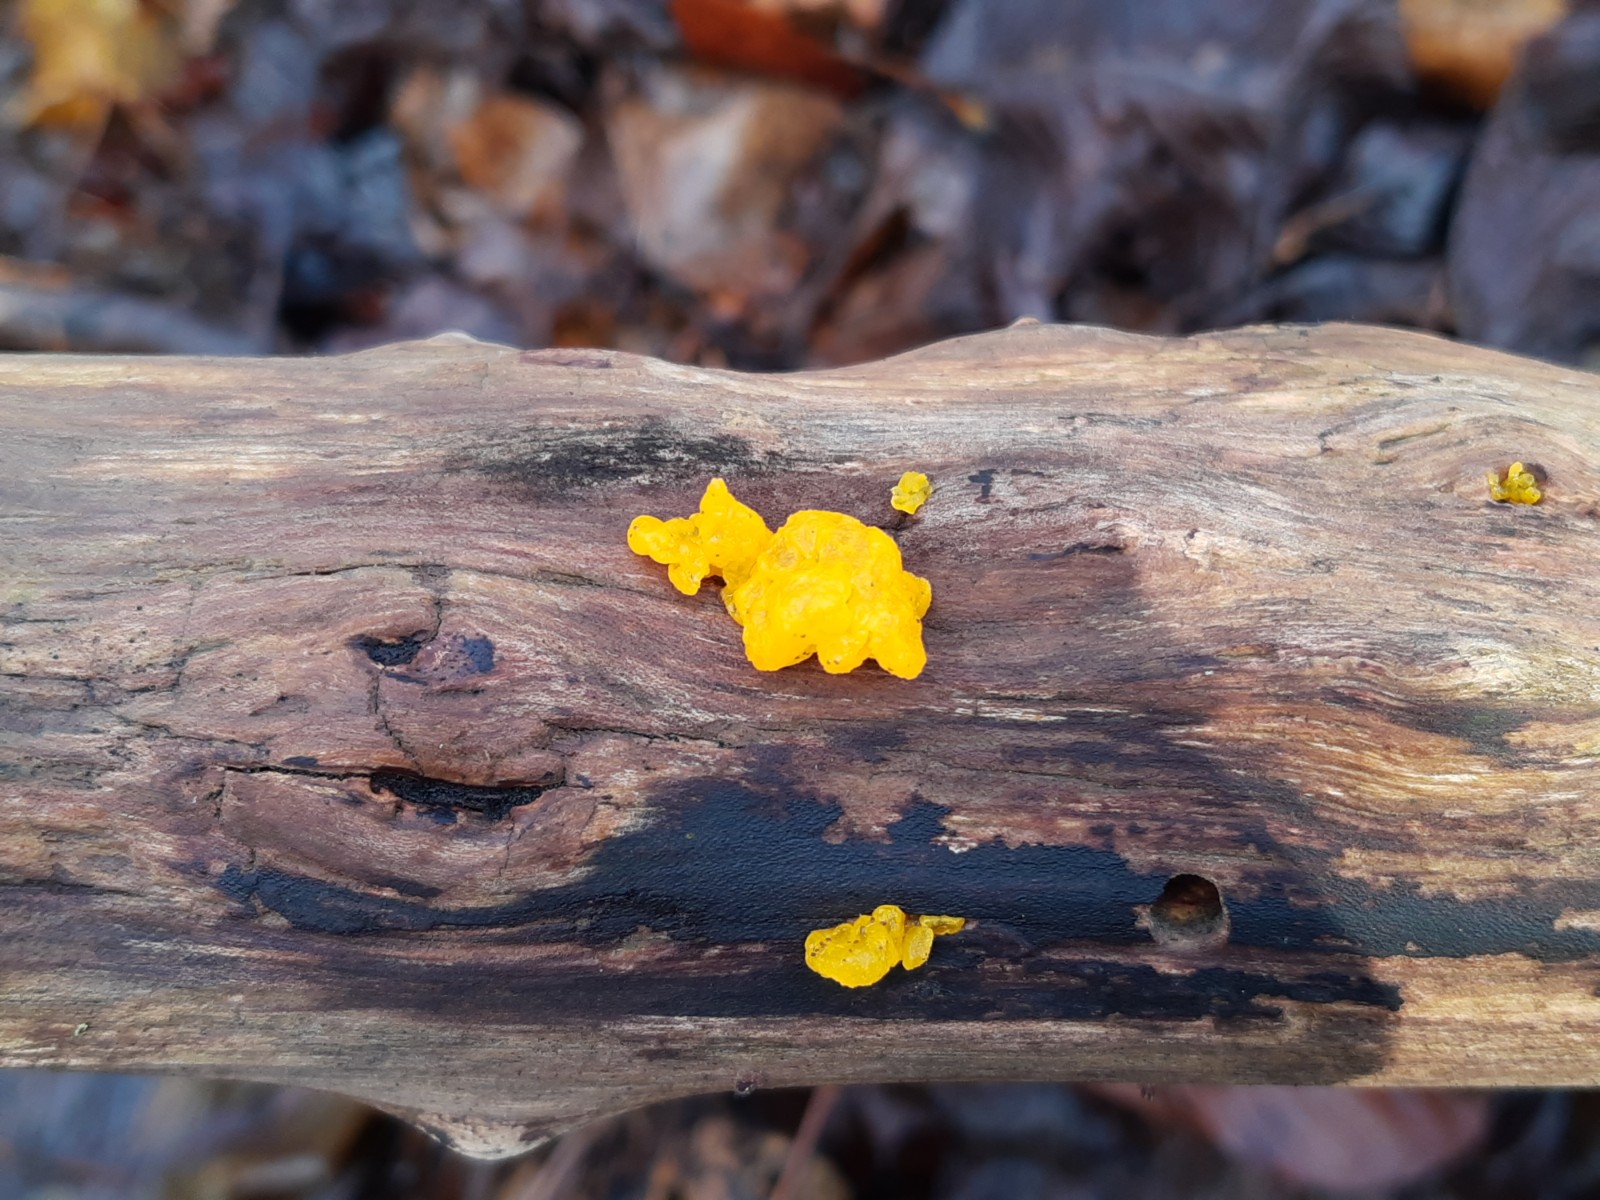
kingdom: Fungi
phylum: Basidiomycota
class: Tremellomycetes
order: Tremellales
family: Tremellaceae
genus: Tremella
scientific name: Tremella mesenterica
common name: gul bævresvamp
